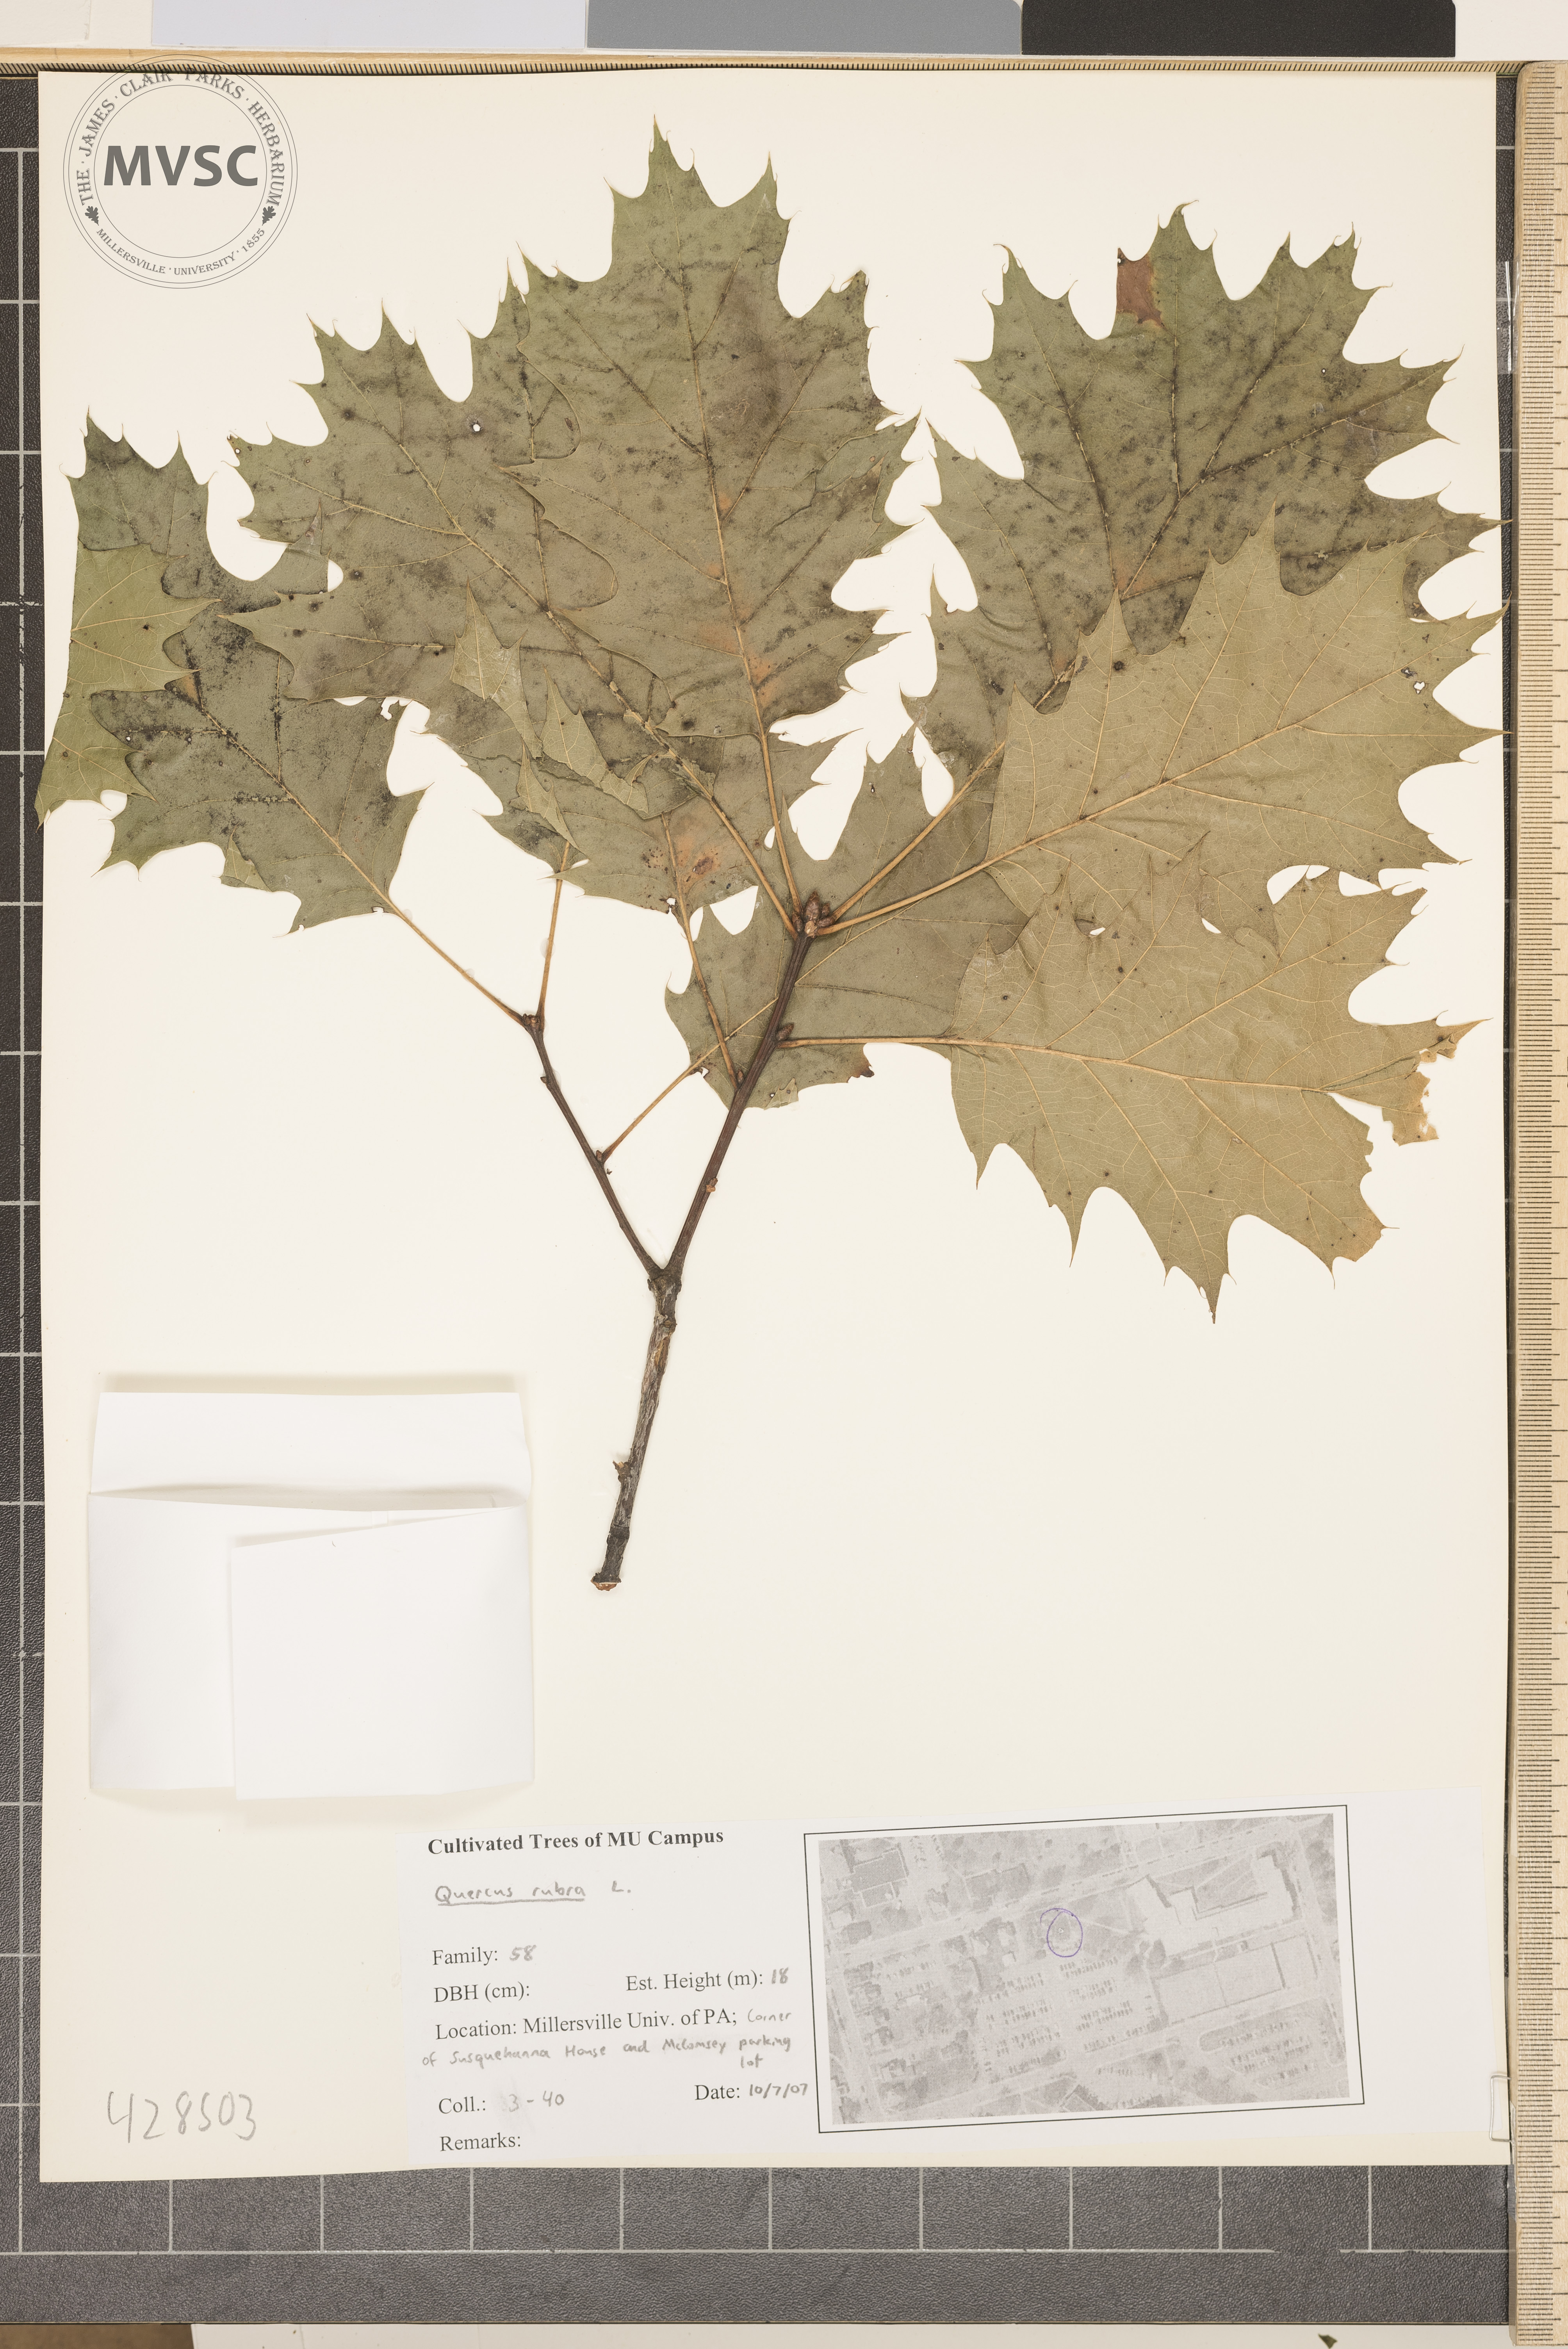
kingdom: Plantae
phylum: Tracheophyta
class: Magnoliopsida
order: Fagales
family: Fagaceae
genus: Quercus
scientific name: Quercus rubra
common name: Northern Red Oak
